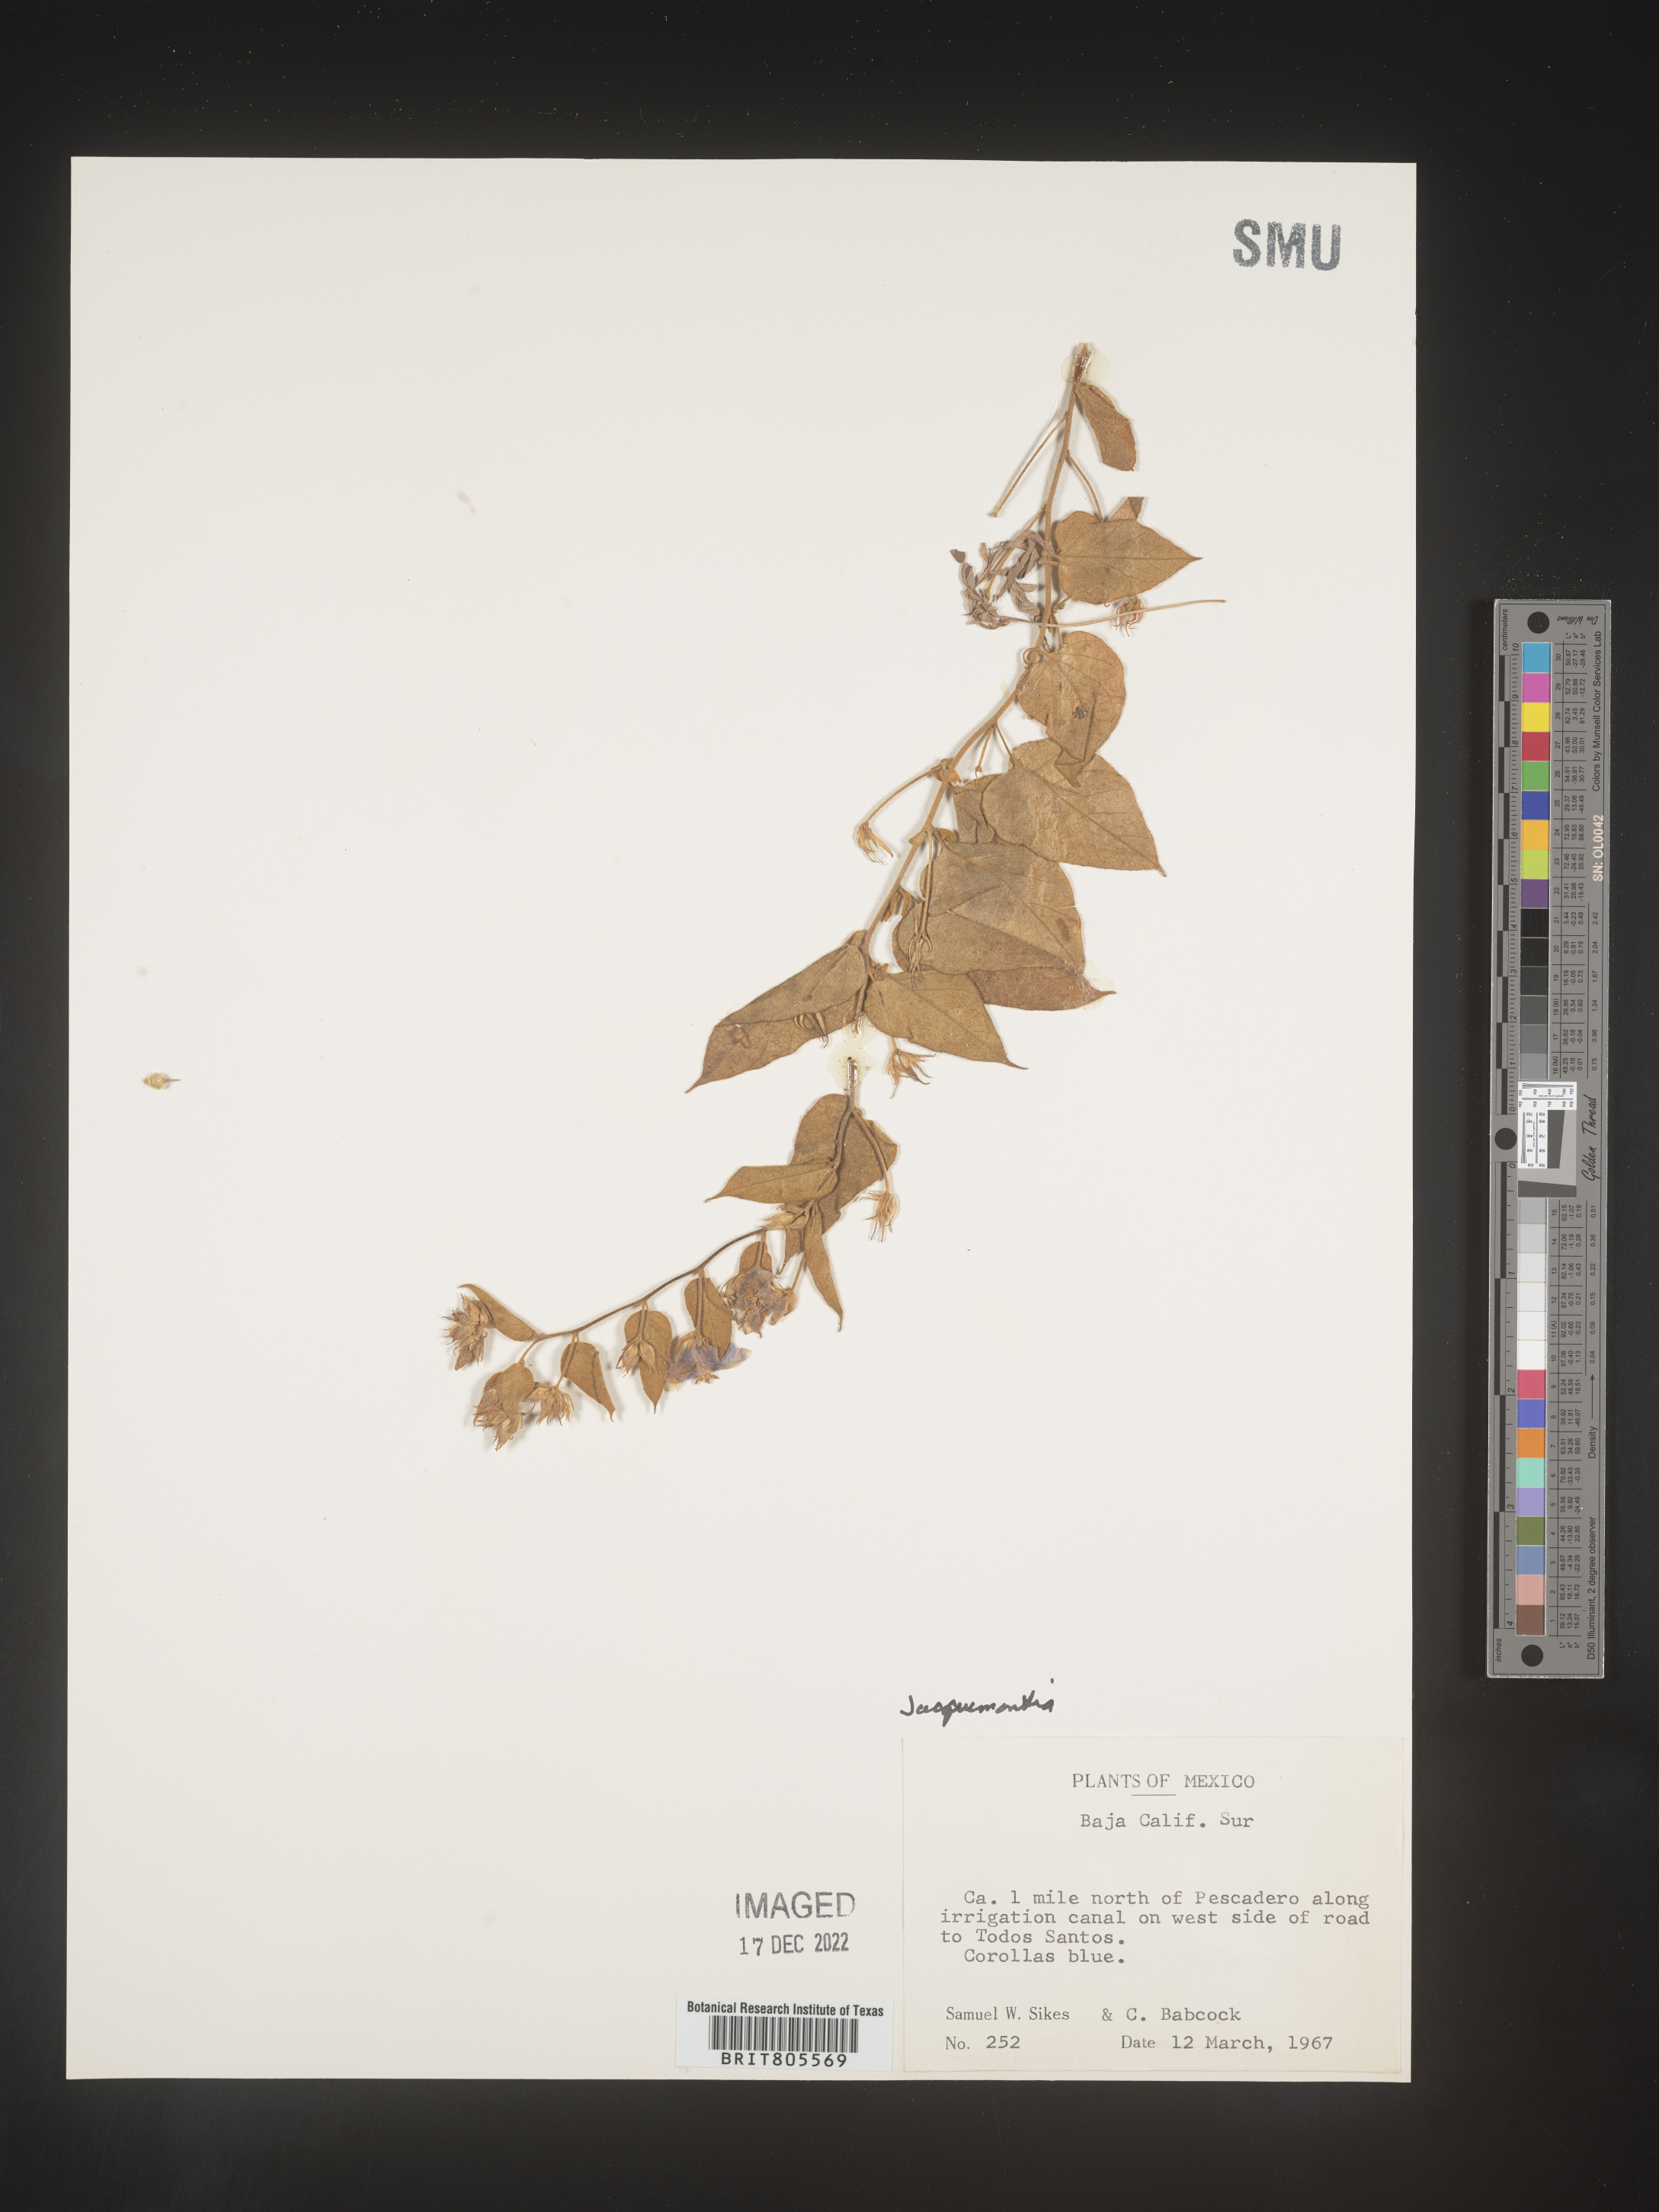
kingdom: Plantae
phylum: Tracheophyta
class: Magnoliopsida
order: Solanales
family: Convolvulaceae
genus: Jacquemontia
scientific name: Jacquemontia
